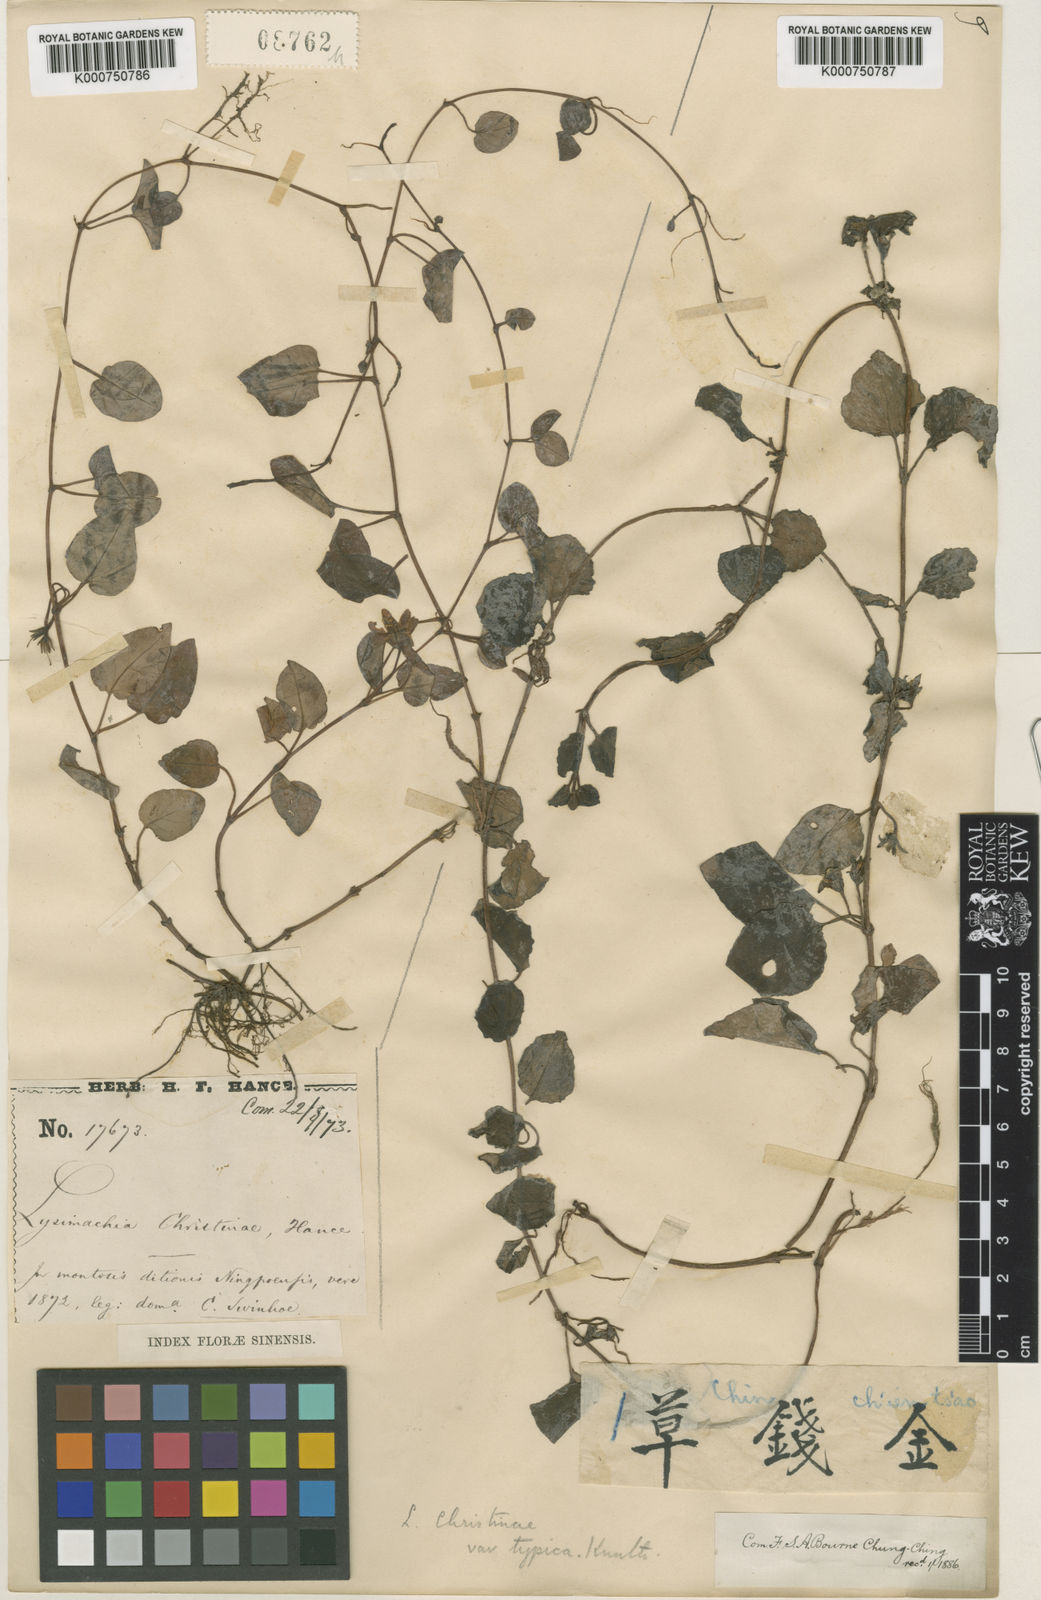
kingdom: Plantae
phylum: Tracheophyta
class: Magnoliopsida
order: Ericales
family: Primulaceae
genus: Lysimachia
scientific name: Lysimachia christinae
